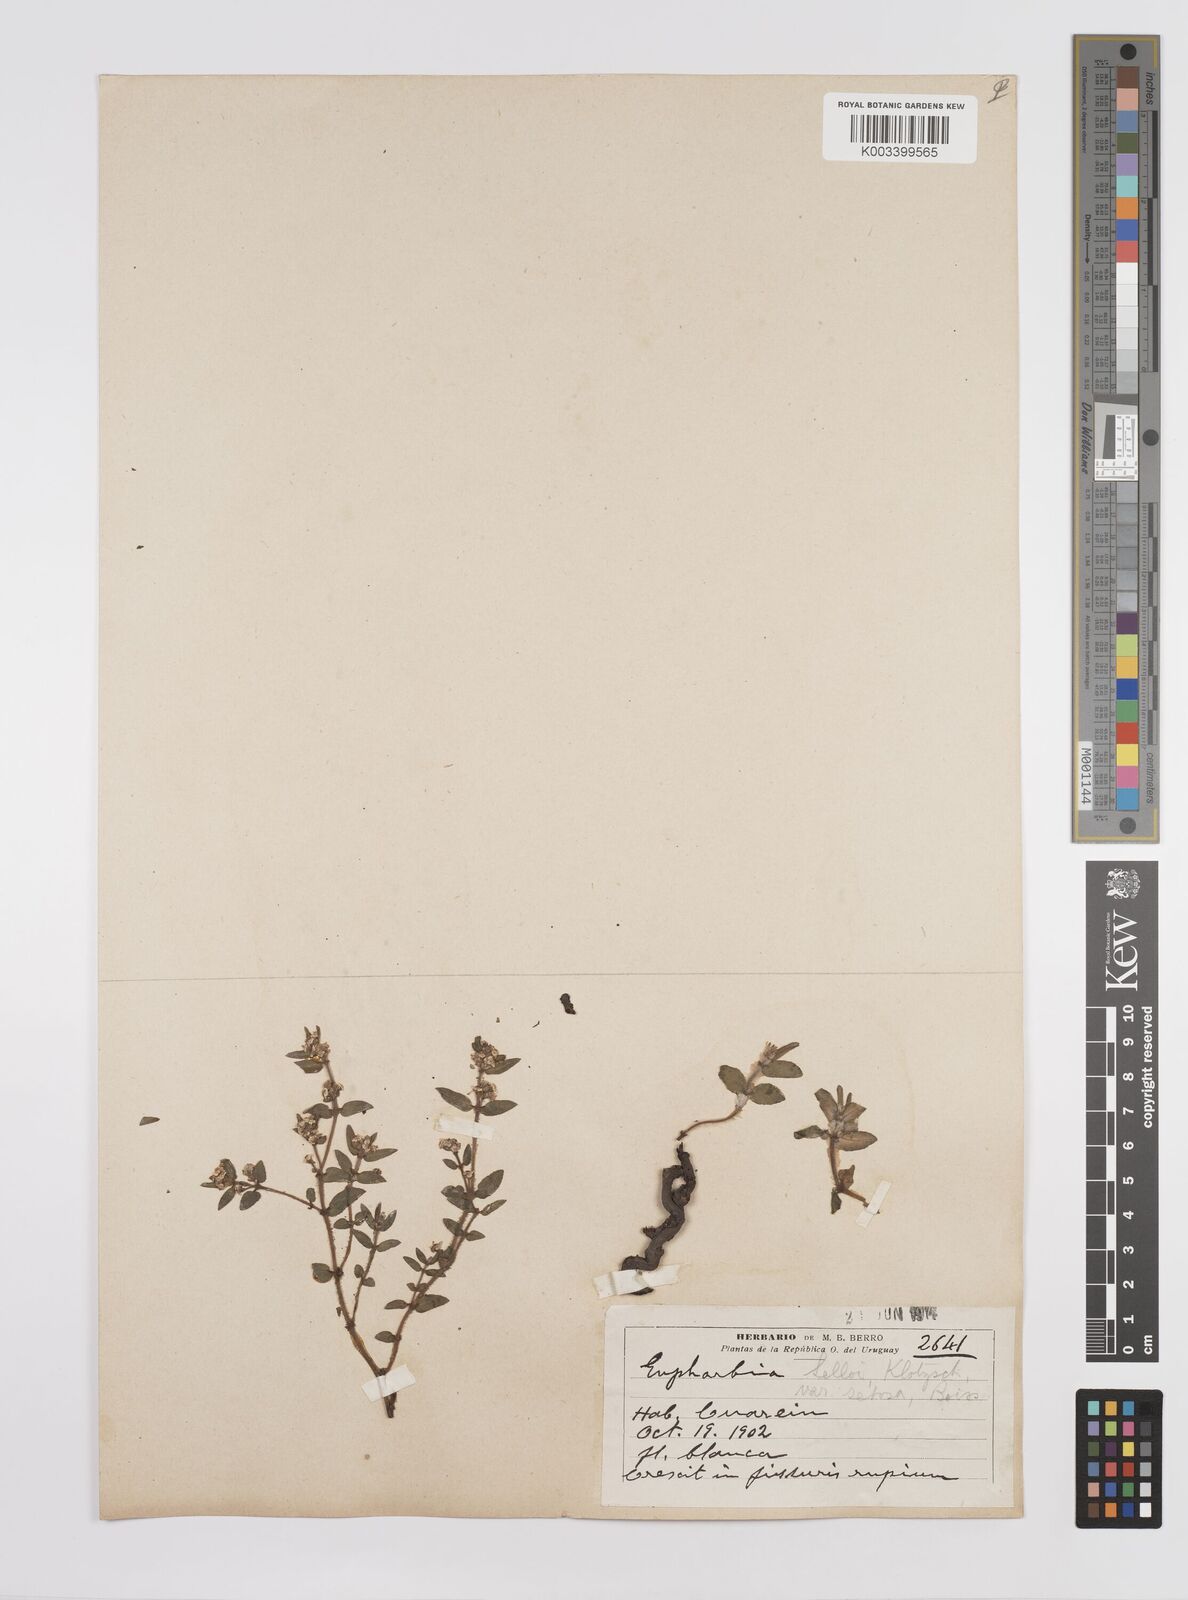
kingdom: Plantae
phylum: Tracheophyta
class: Magnoliopsida
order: Malpighiales
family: Euphorbiaceae
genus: Euphorbia
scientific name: Euphorbia selloi
